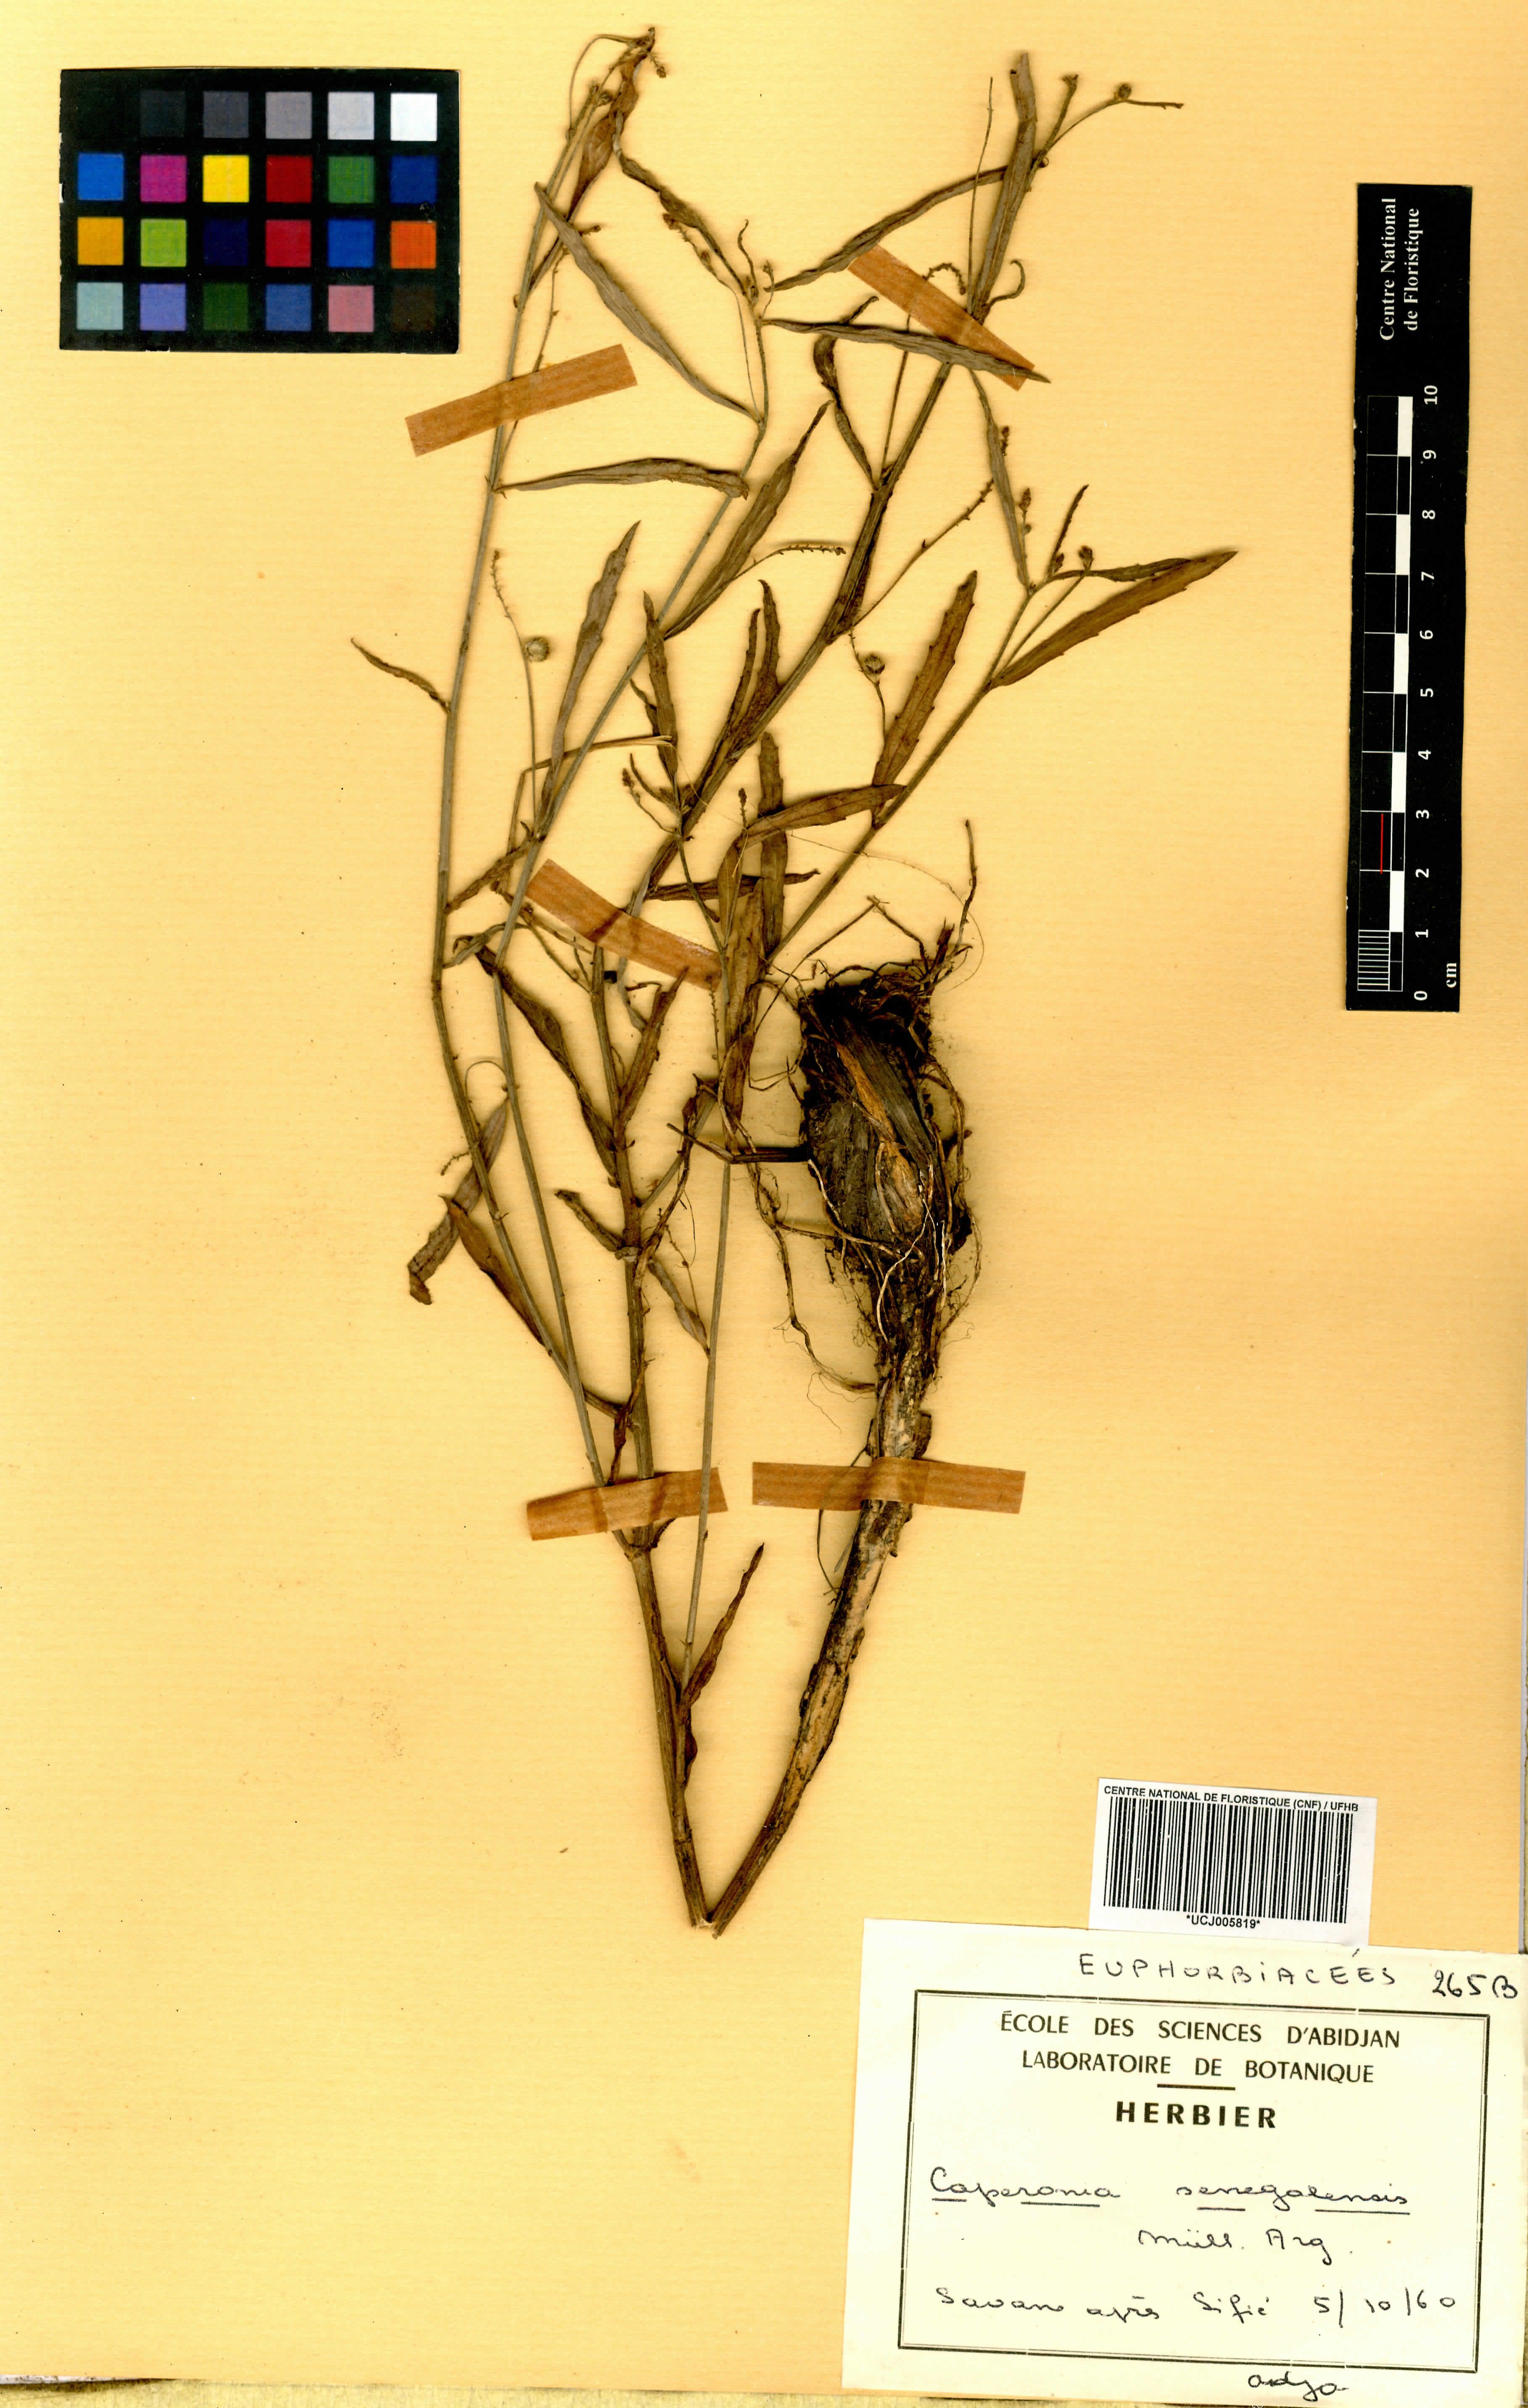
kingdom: Plantae
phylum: Tracheophyta
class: Magnoliopsida
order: Malpighiales
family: Euphorbiaceae
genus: Caperonia
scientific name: Caperonia serrata
